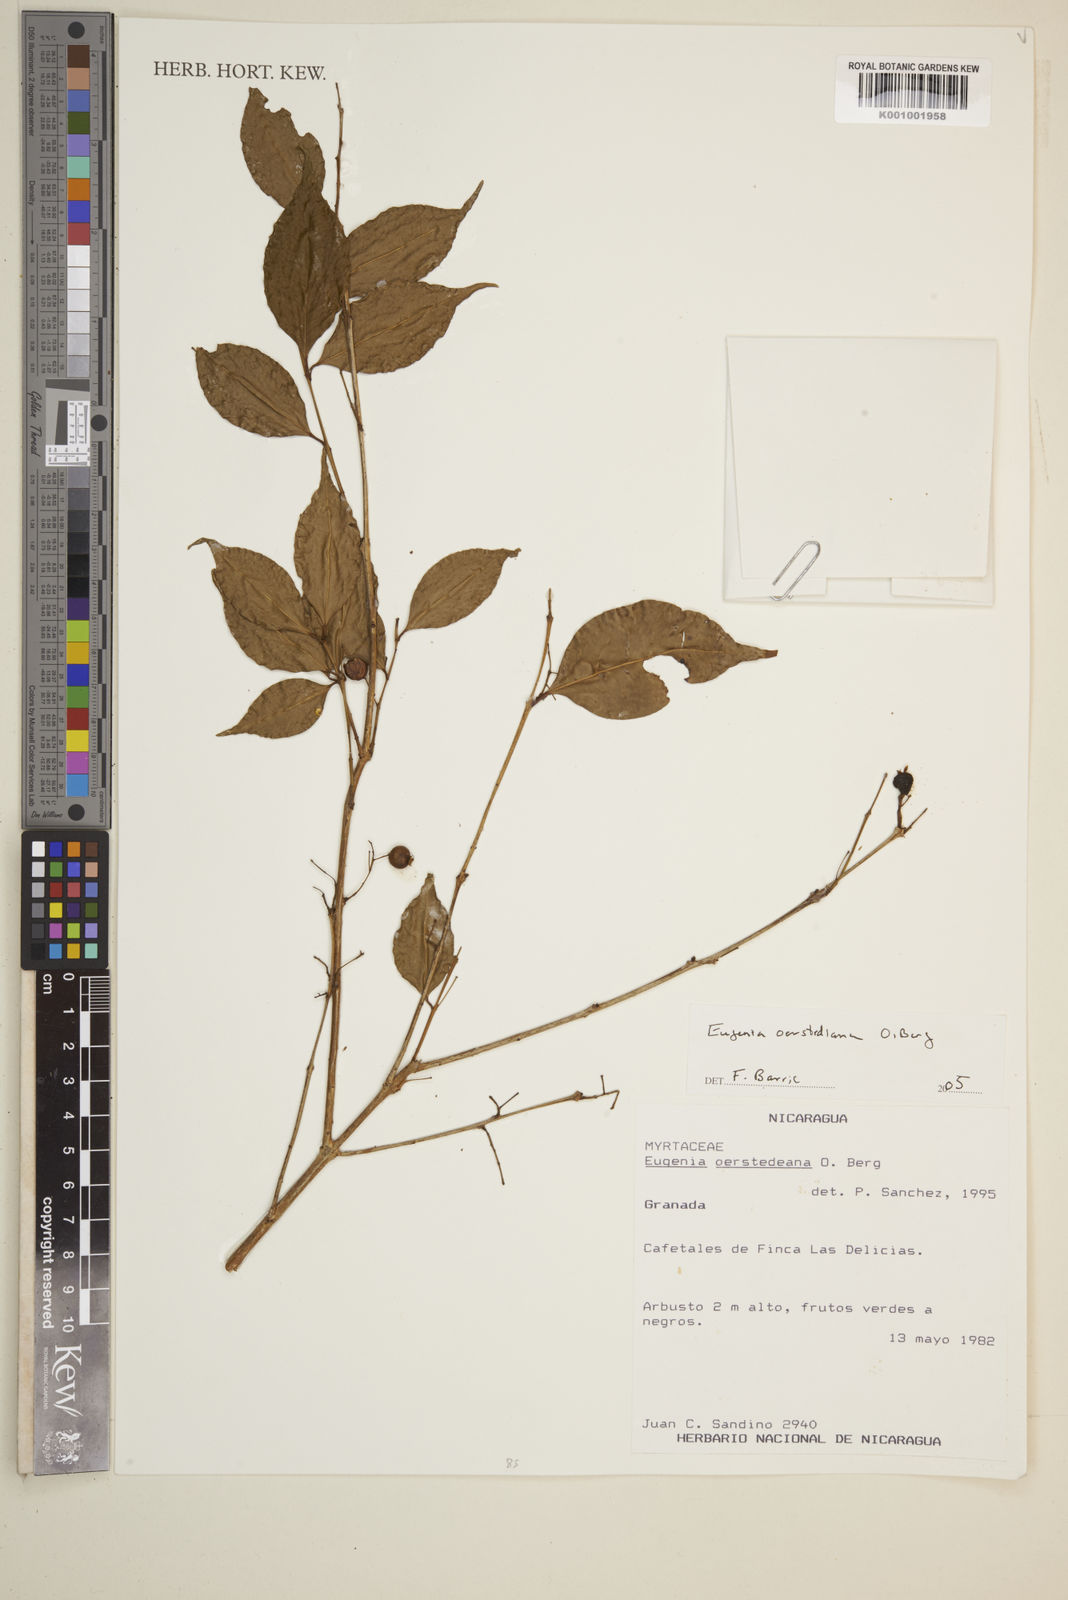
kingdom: Plantae
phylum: Tracheophyta
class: Magnoliopsida
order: Myrtales
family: Myrtaceae
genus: Eugenia
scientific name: Eugenia oerstediana
